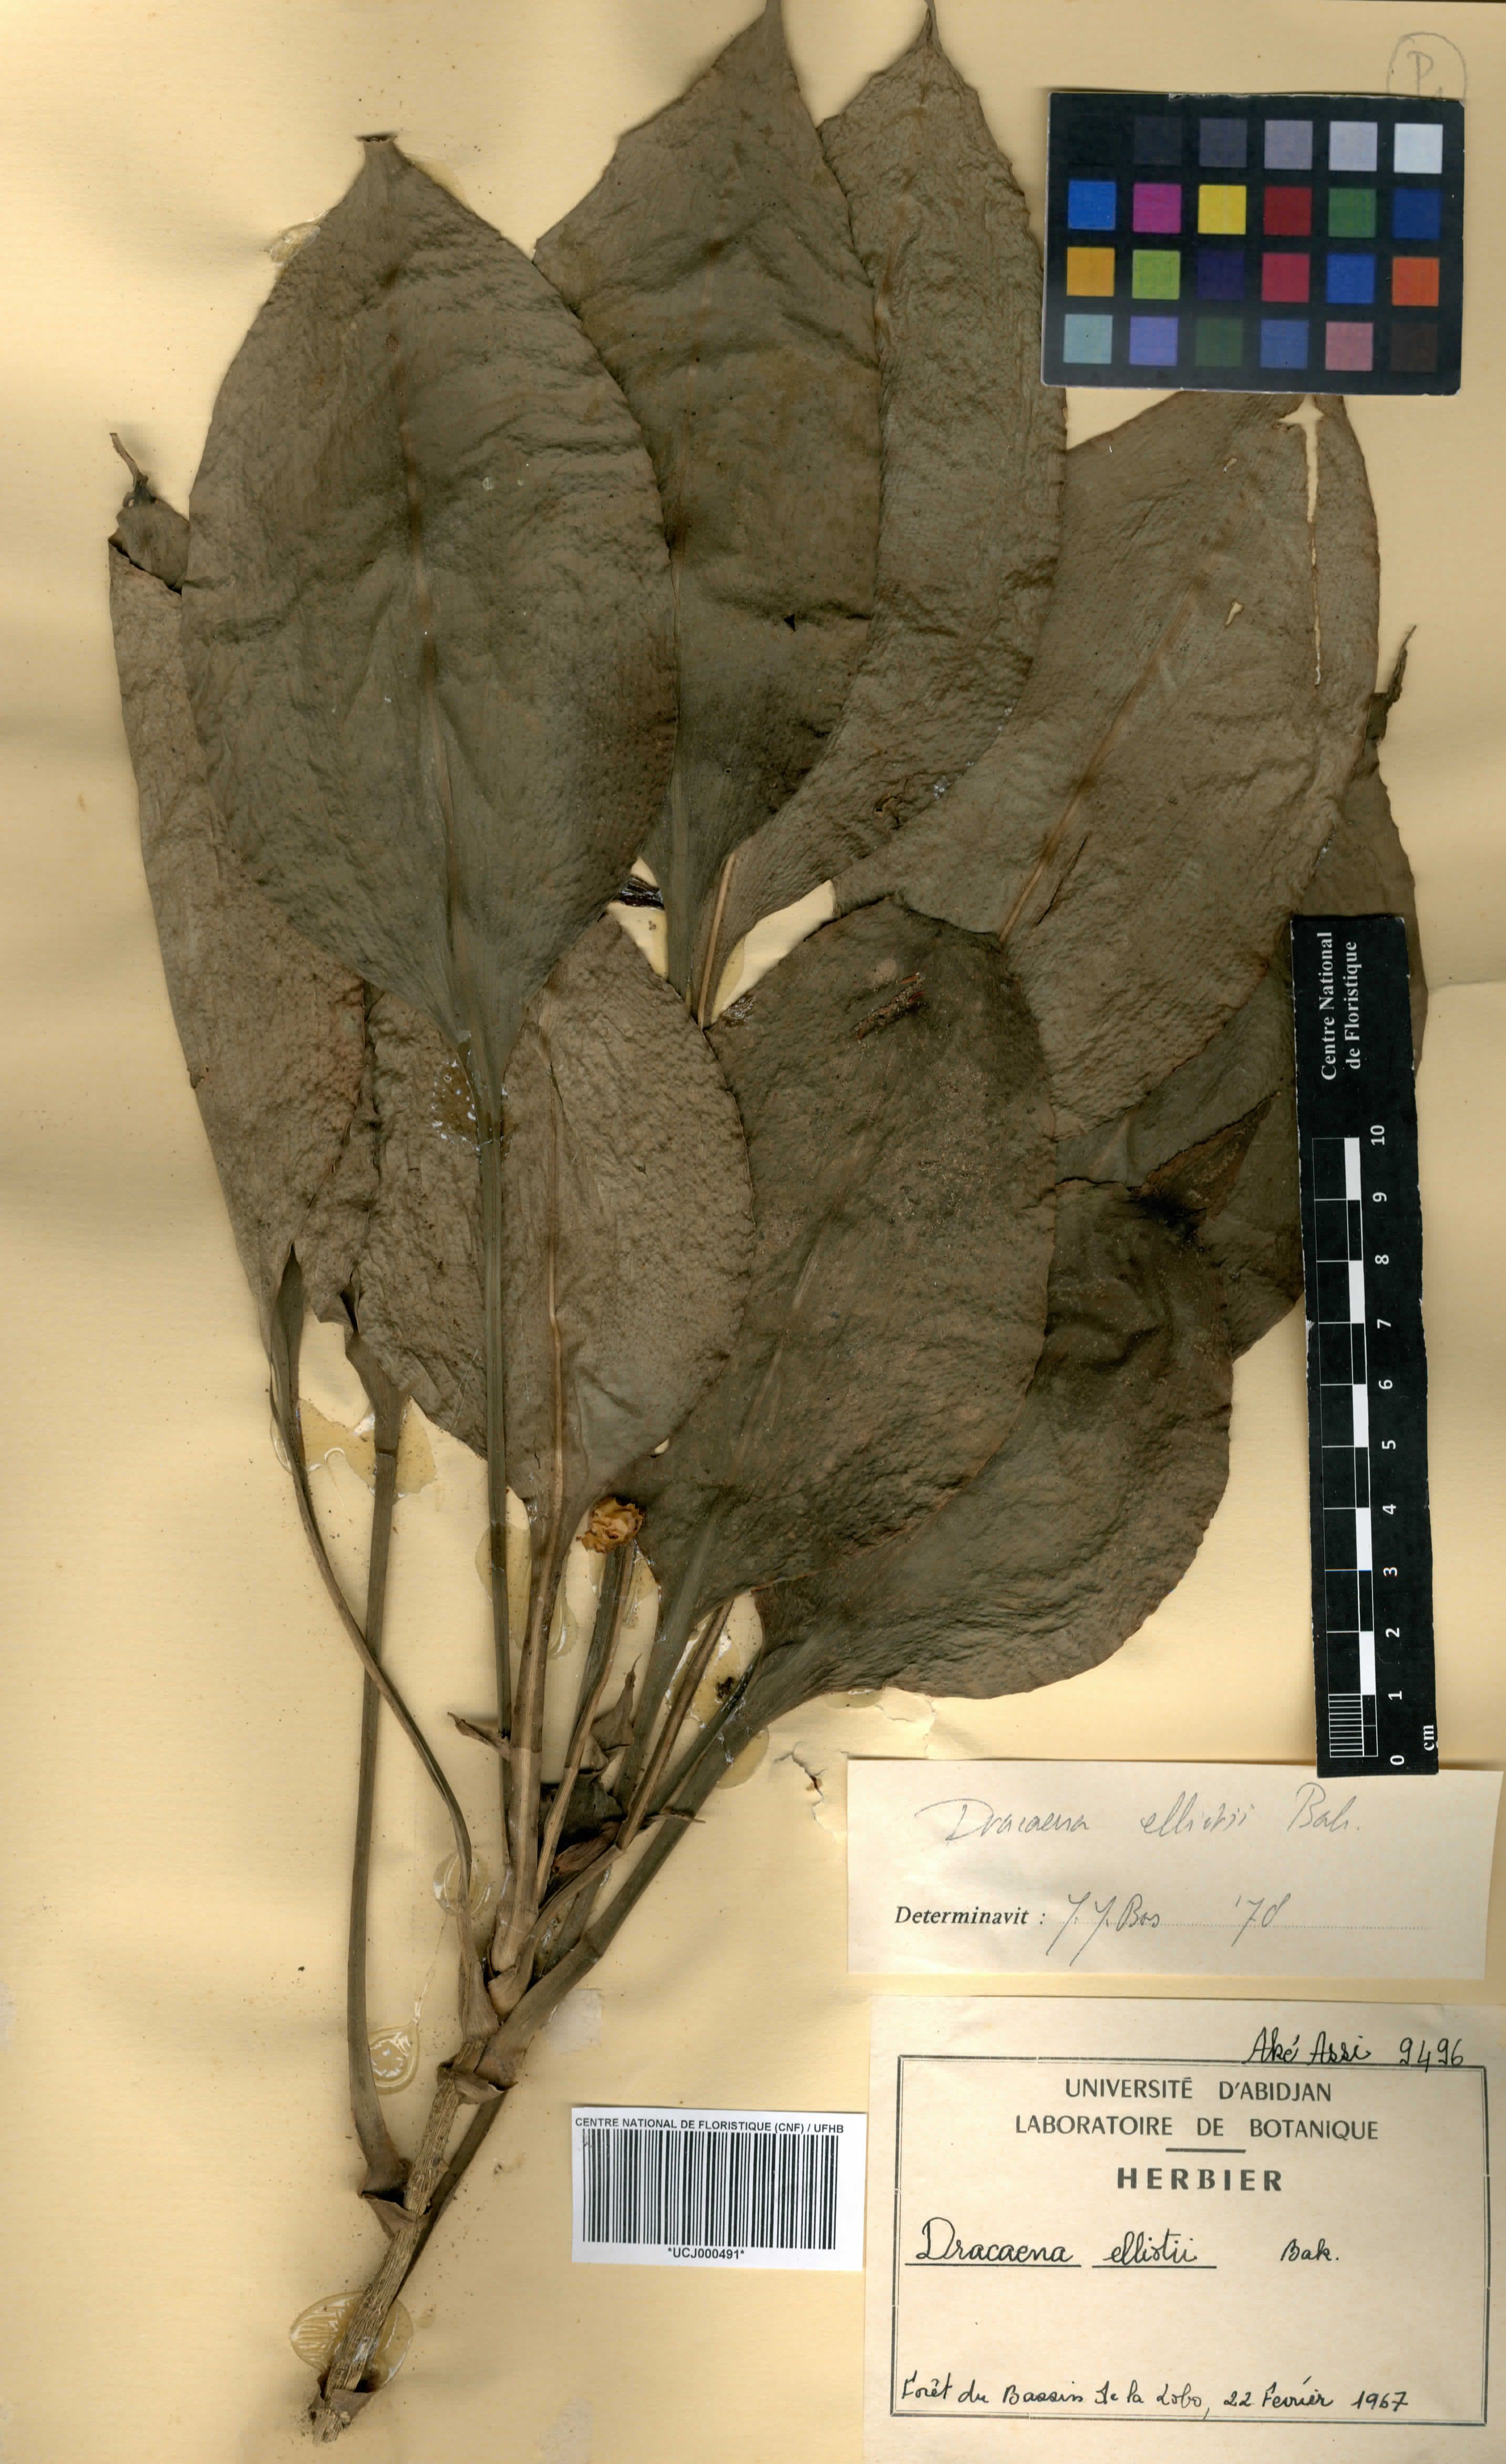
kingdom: Plantae
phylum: Tracheophyta
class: Liliopsida
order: Asparagales
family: Asparagaceae
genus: Dracaena
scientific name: Dracaena cristula
